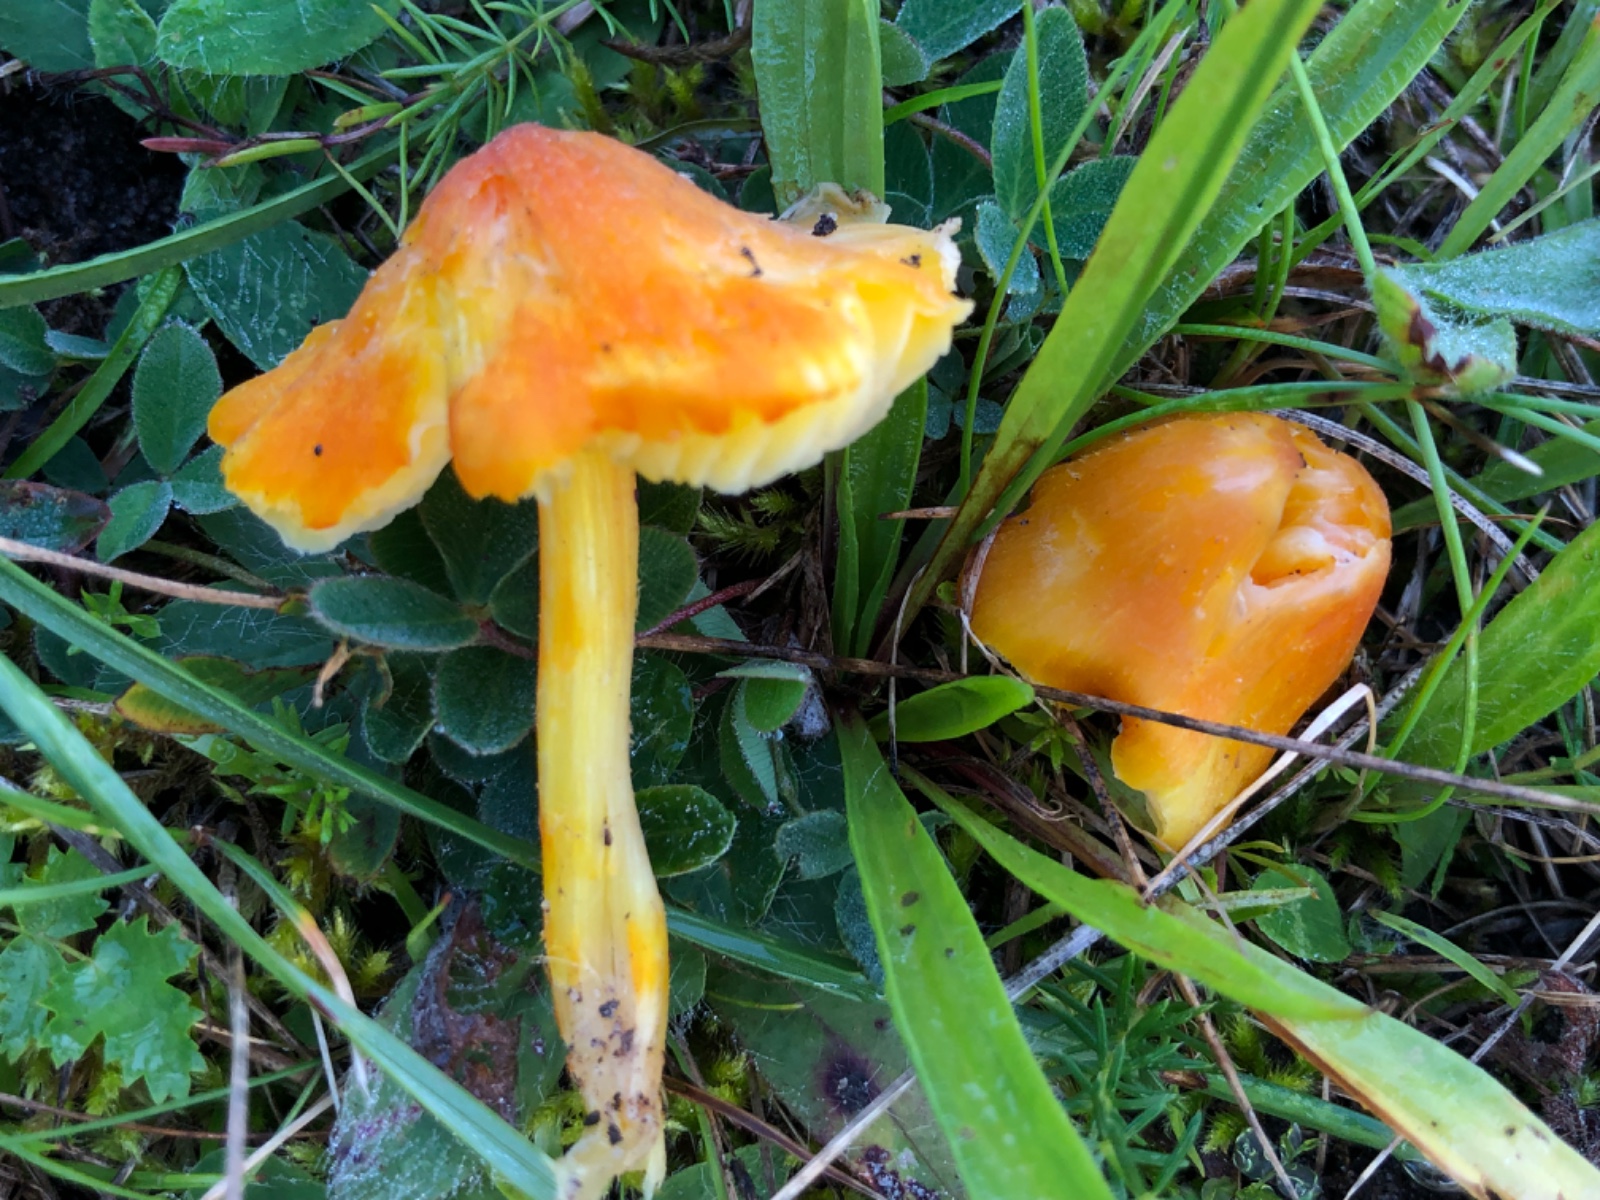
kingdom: Fungi
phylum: Basidiomycota
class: Agaricomycetes
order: Agaricales
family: Hygrophoraceae
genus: Hygrocybe
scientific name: Hygrocybe
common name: vokshat
